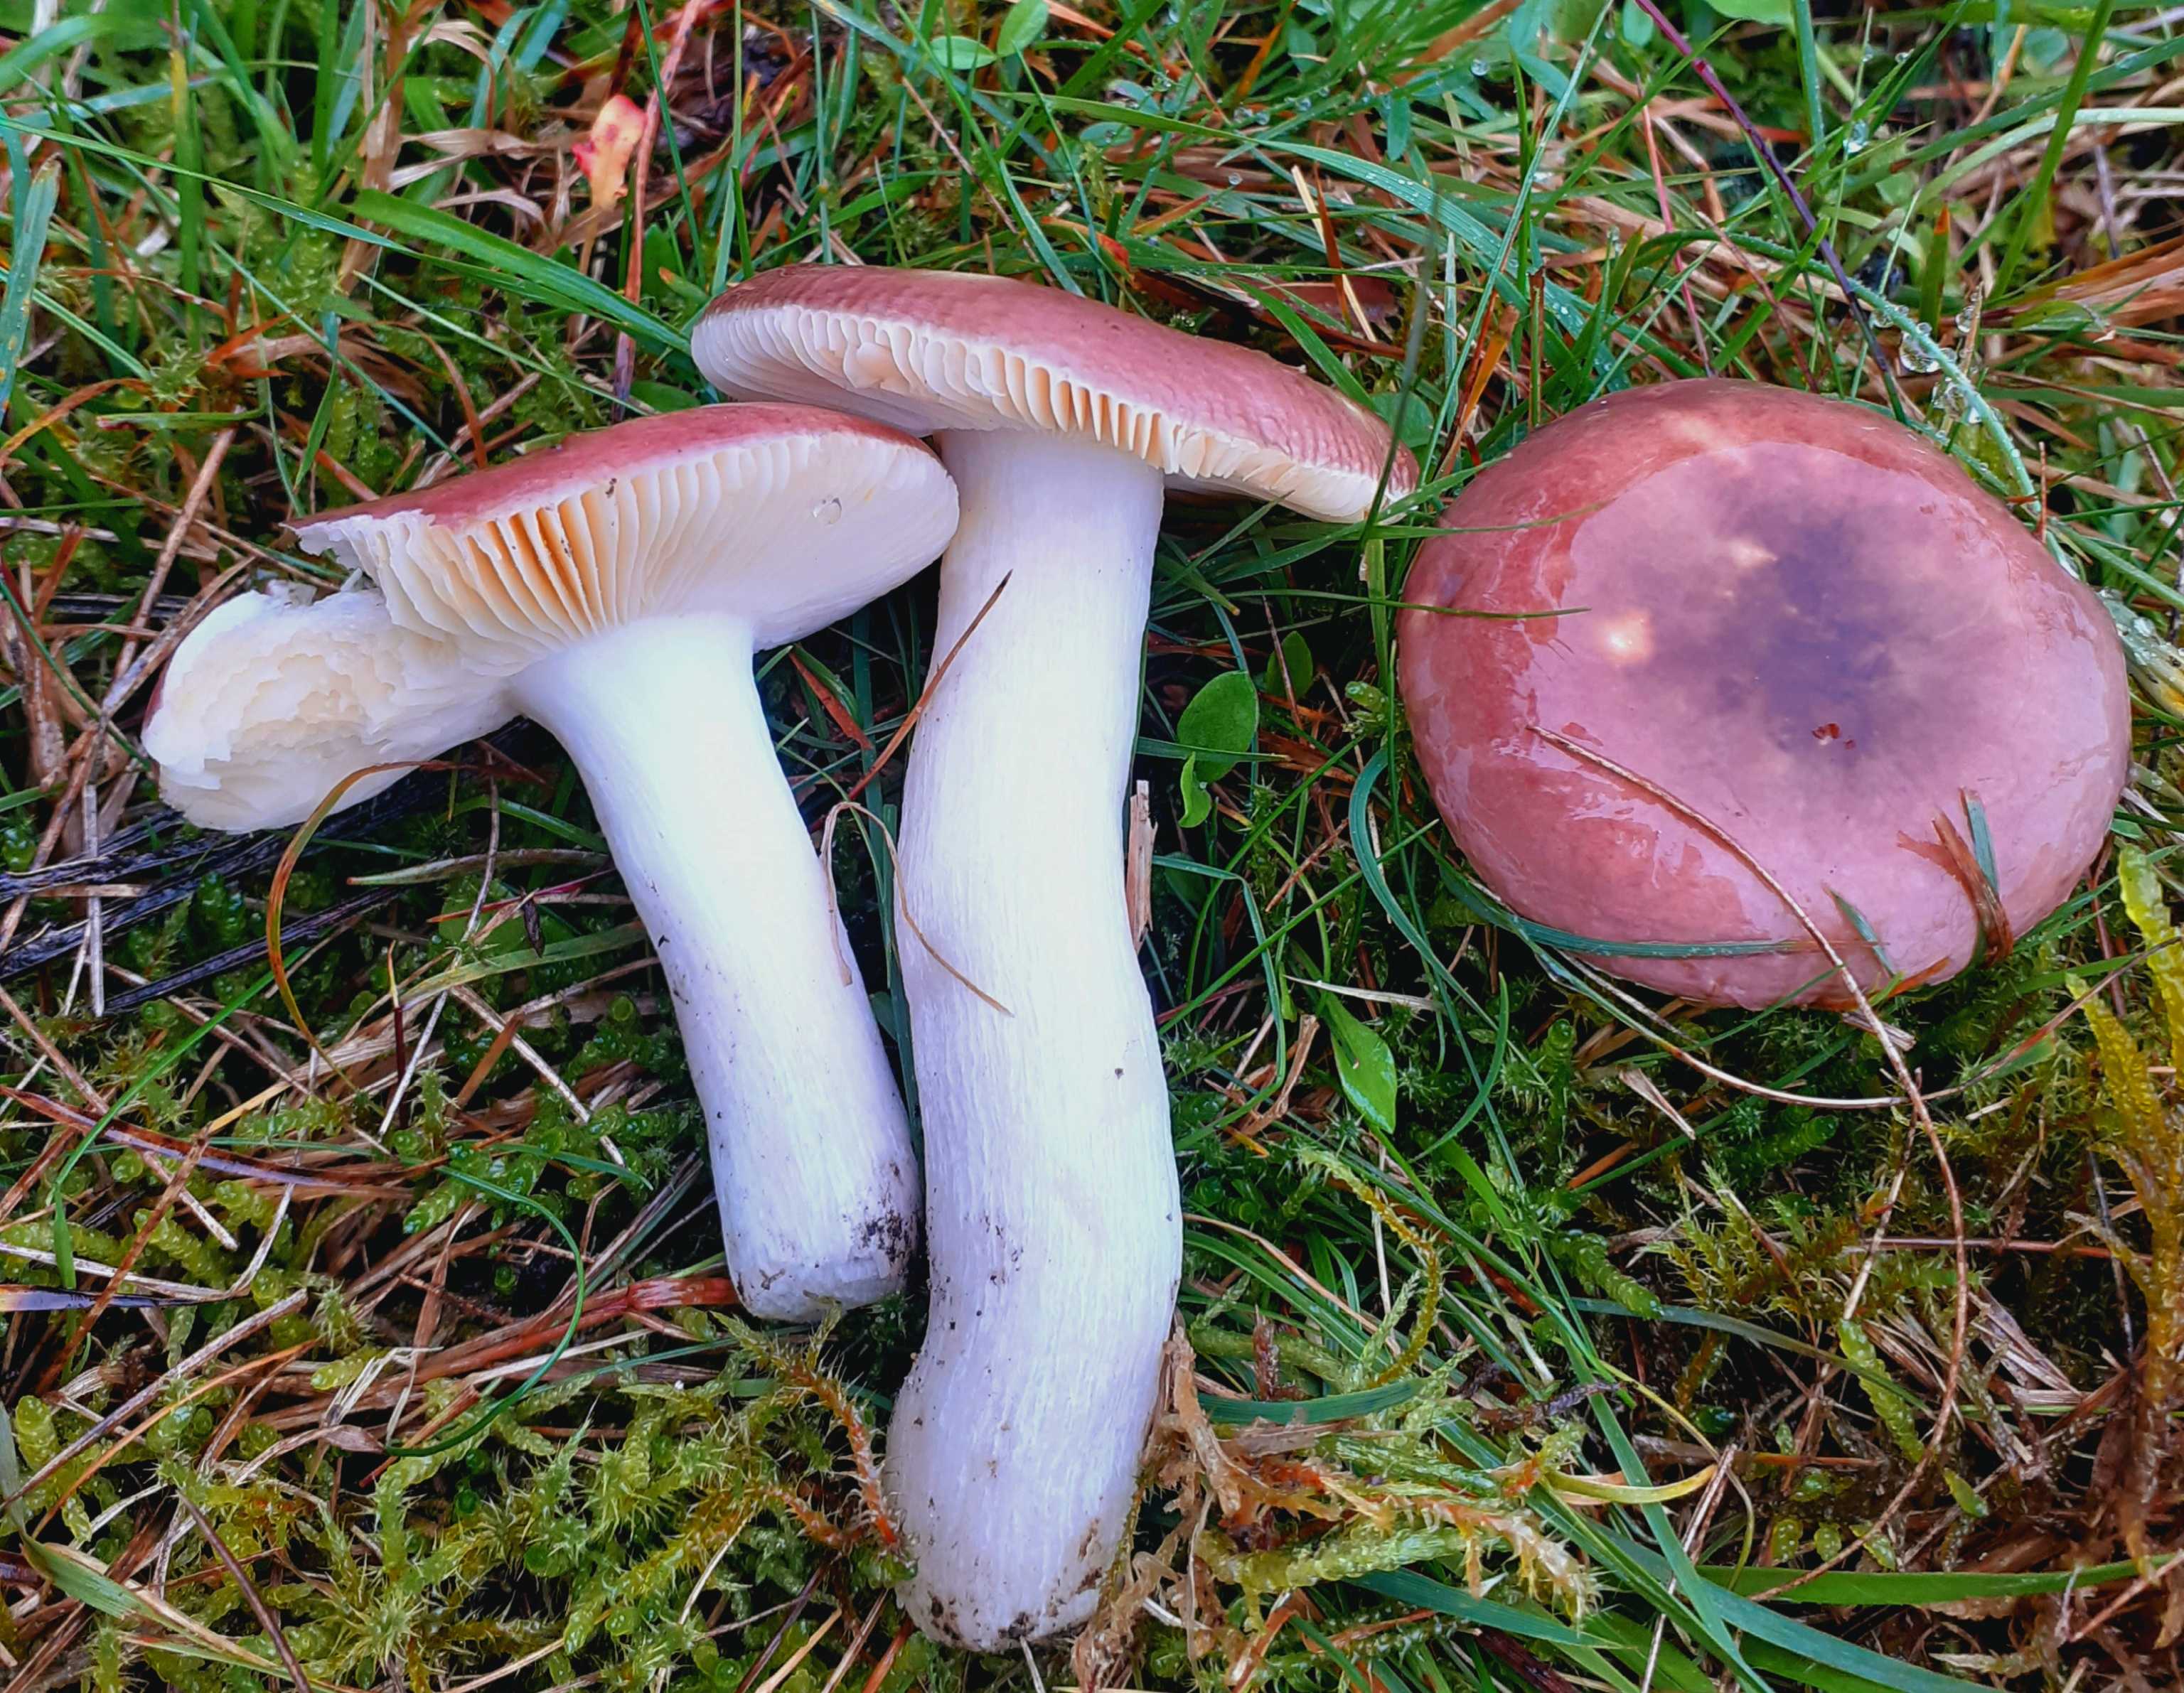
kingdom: Fungi
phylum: Basidiomycota
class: Agaricomycetes
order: Russulales
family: Russulaceae
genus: Russula
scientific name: Russula cessans
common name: fyrre-skørhat
